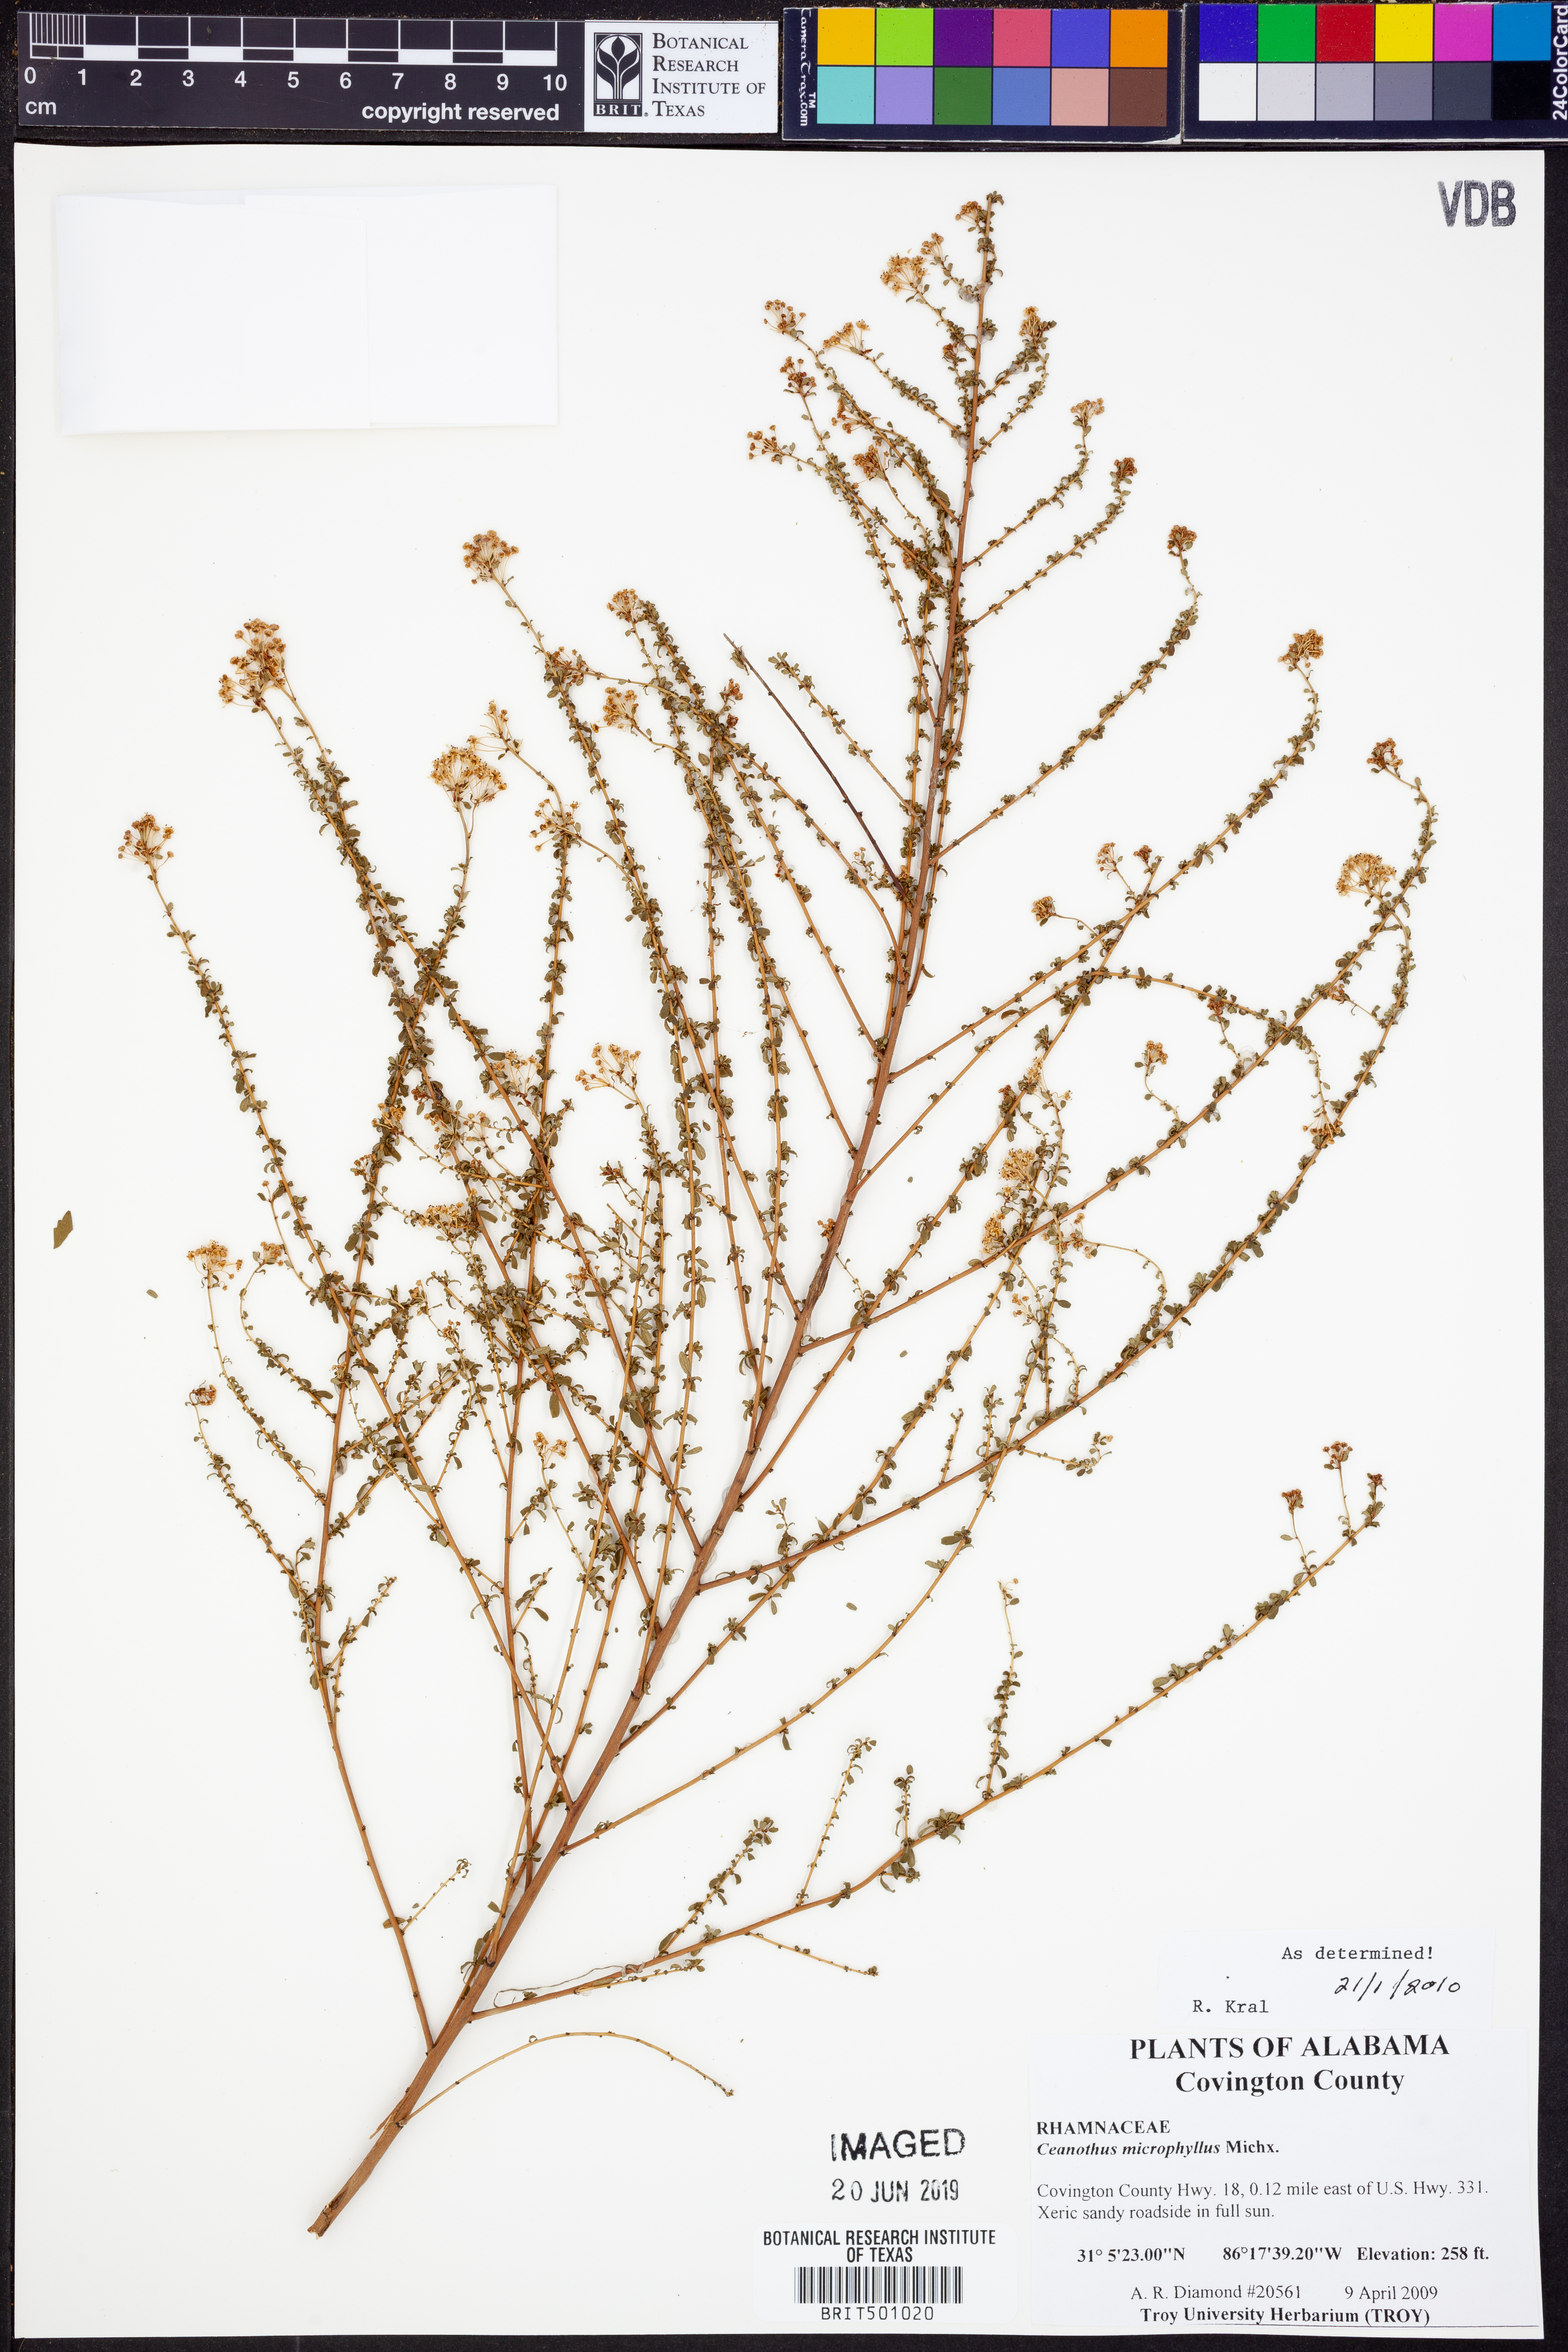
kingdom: Plantae
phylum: Tracheophyta
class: Magnoliopsida
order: Rosales
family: Rhamnaceae
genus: Ceanothus
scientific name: Ceanothus microphyllus
